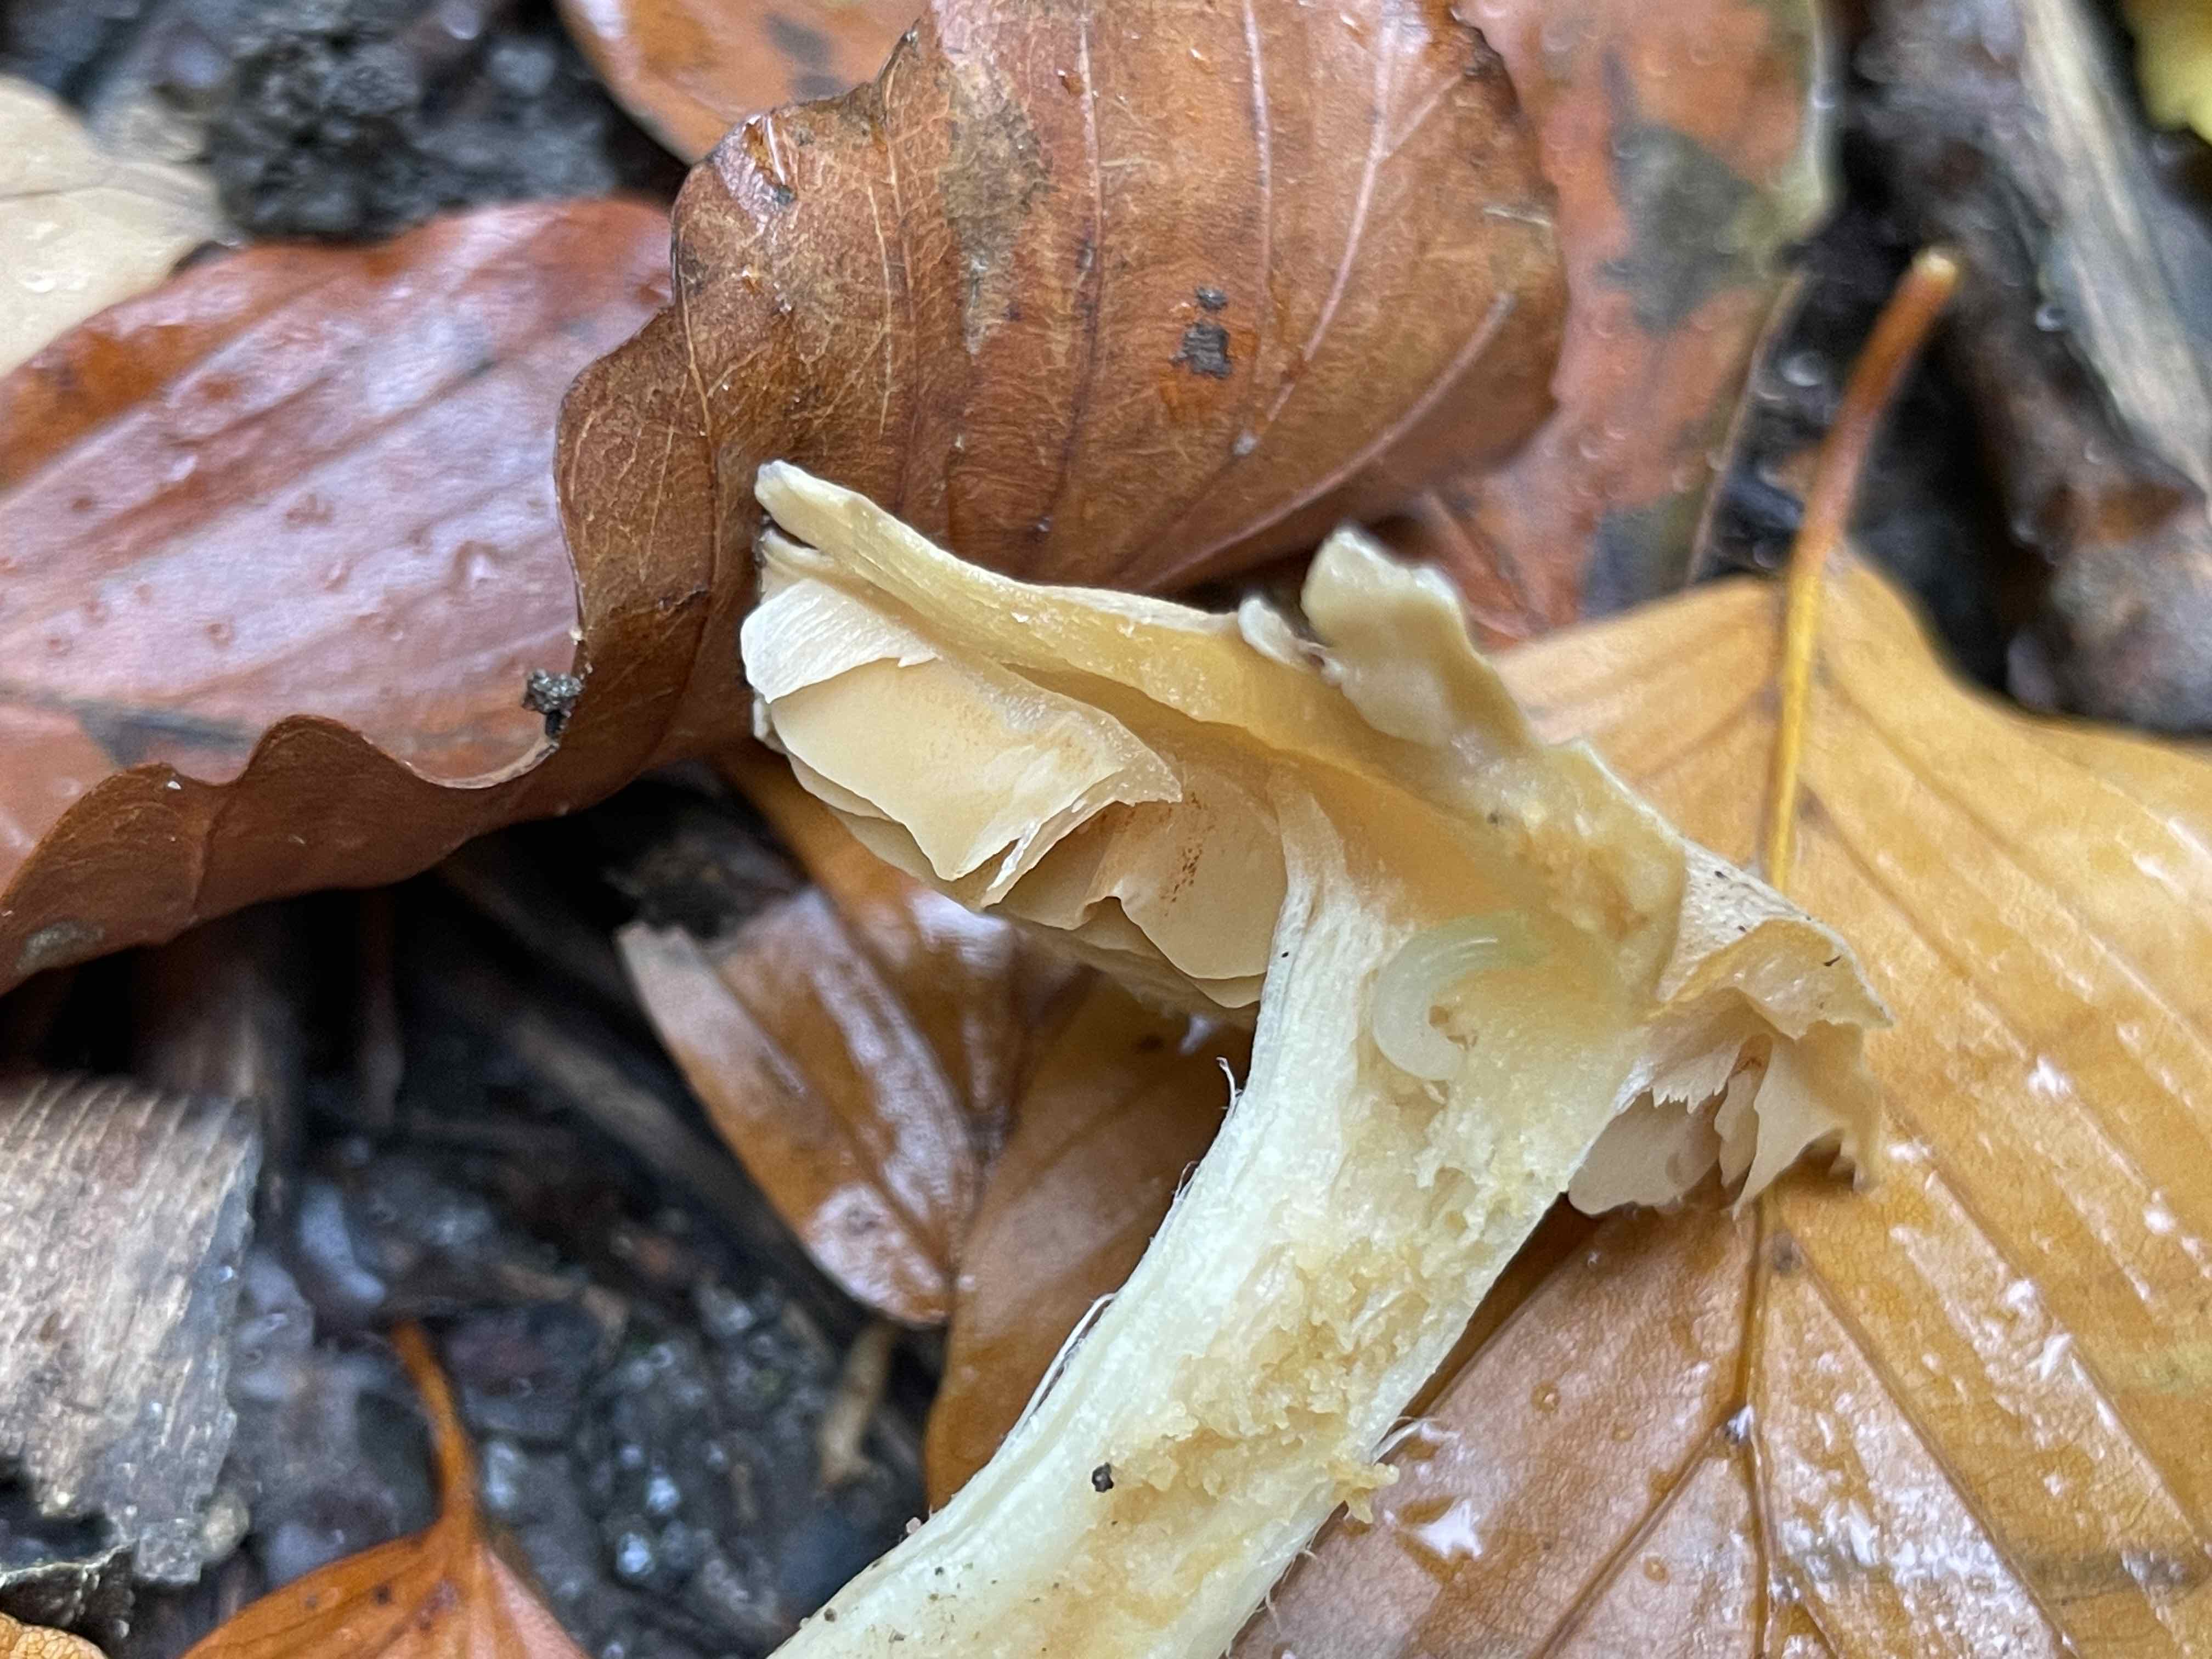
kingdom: Fungi
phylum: Basidiomycota
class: Agaricomycetes
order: Agaricales
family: Cortinariaceae
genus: Thaxterogaster
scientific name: Thaxterogaster leucoluteolus
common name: isabella slørhat
